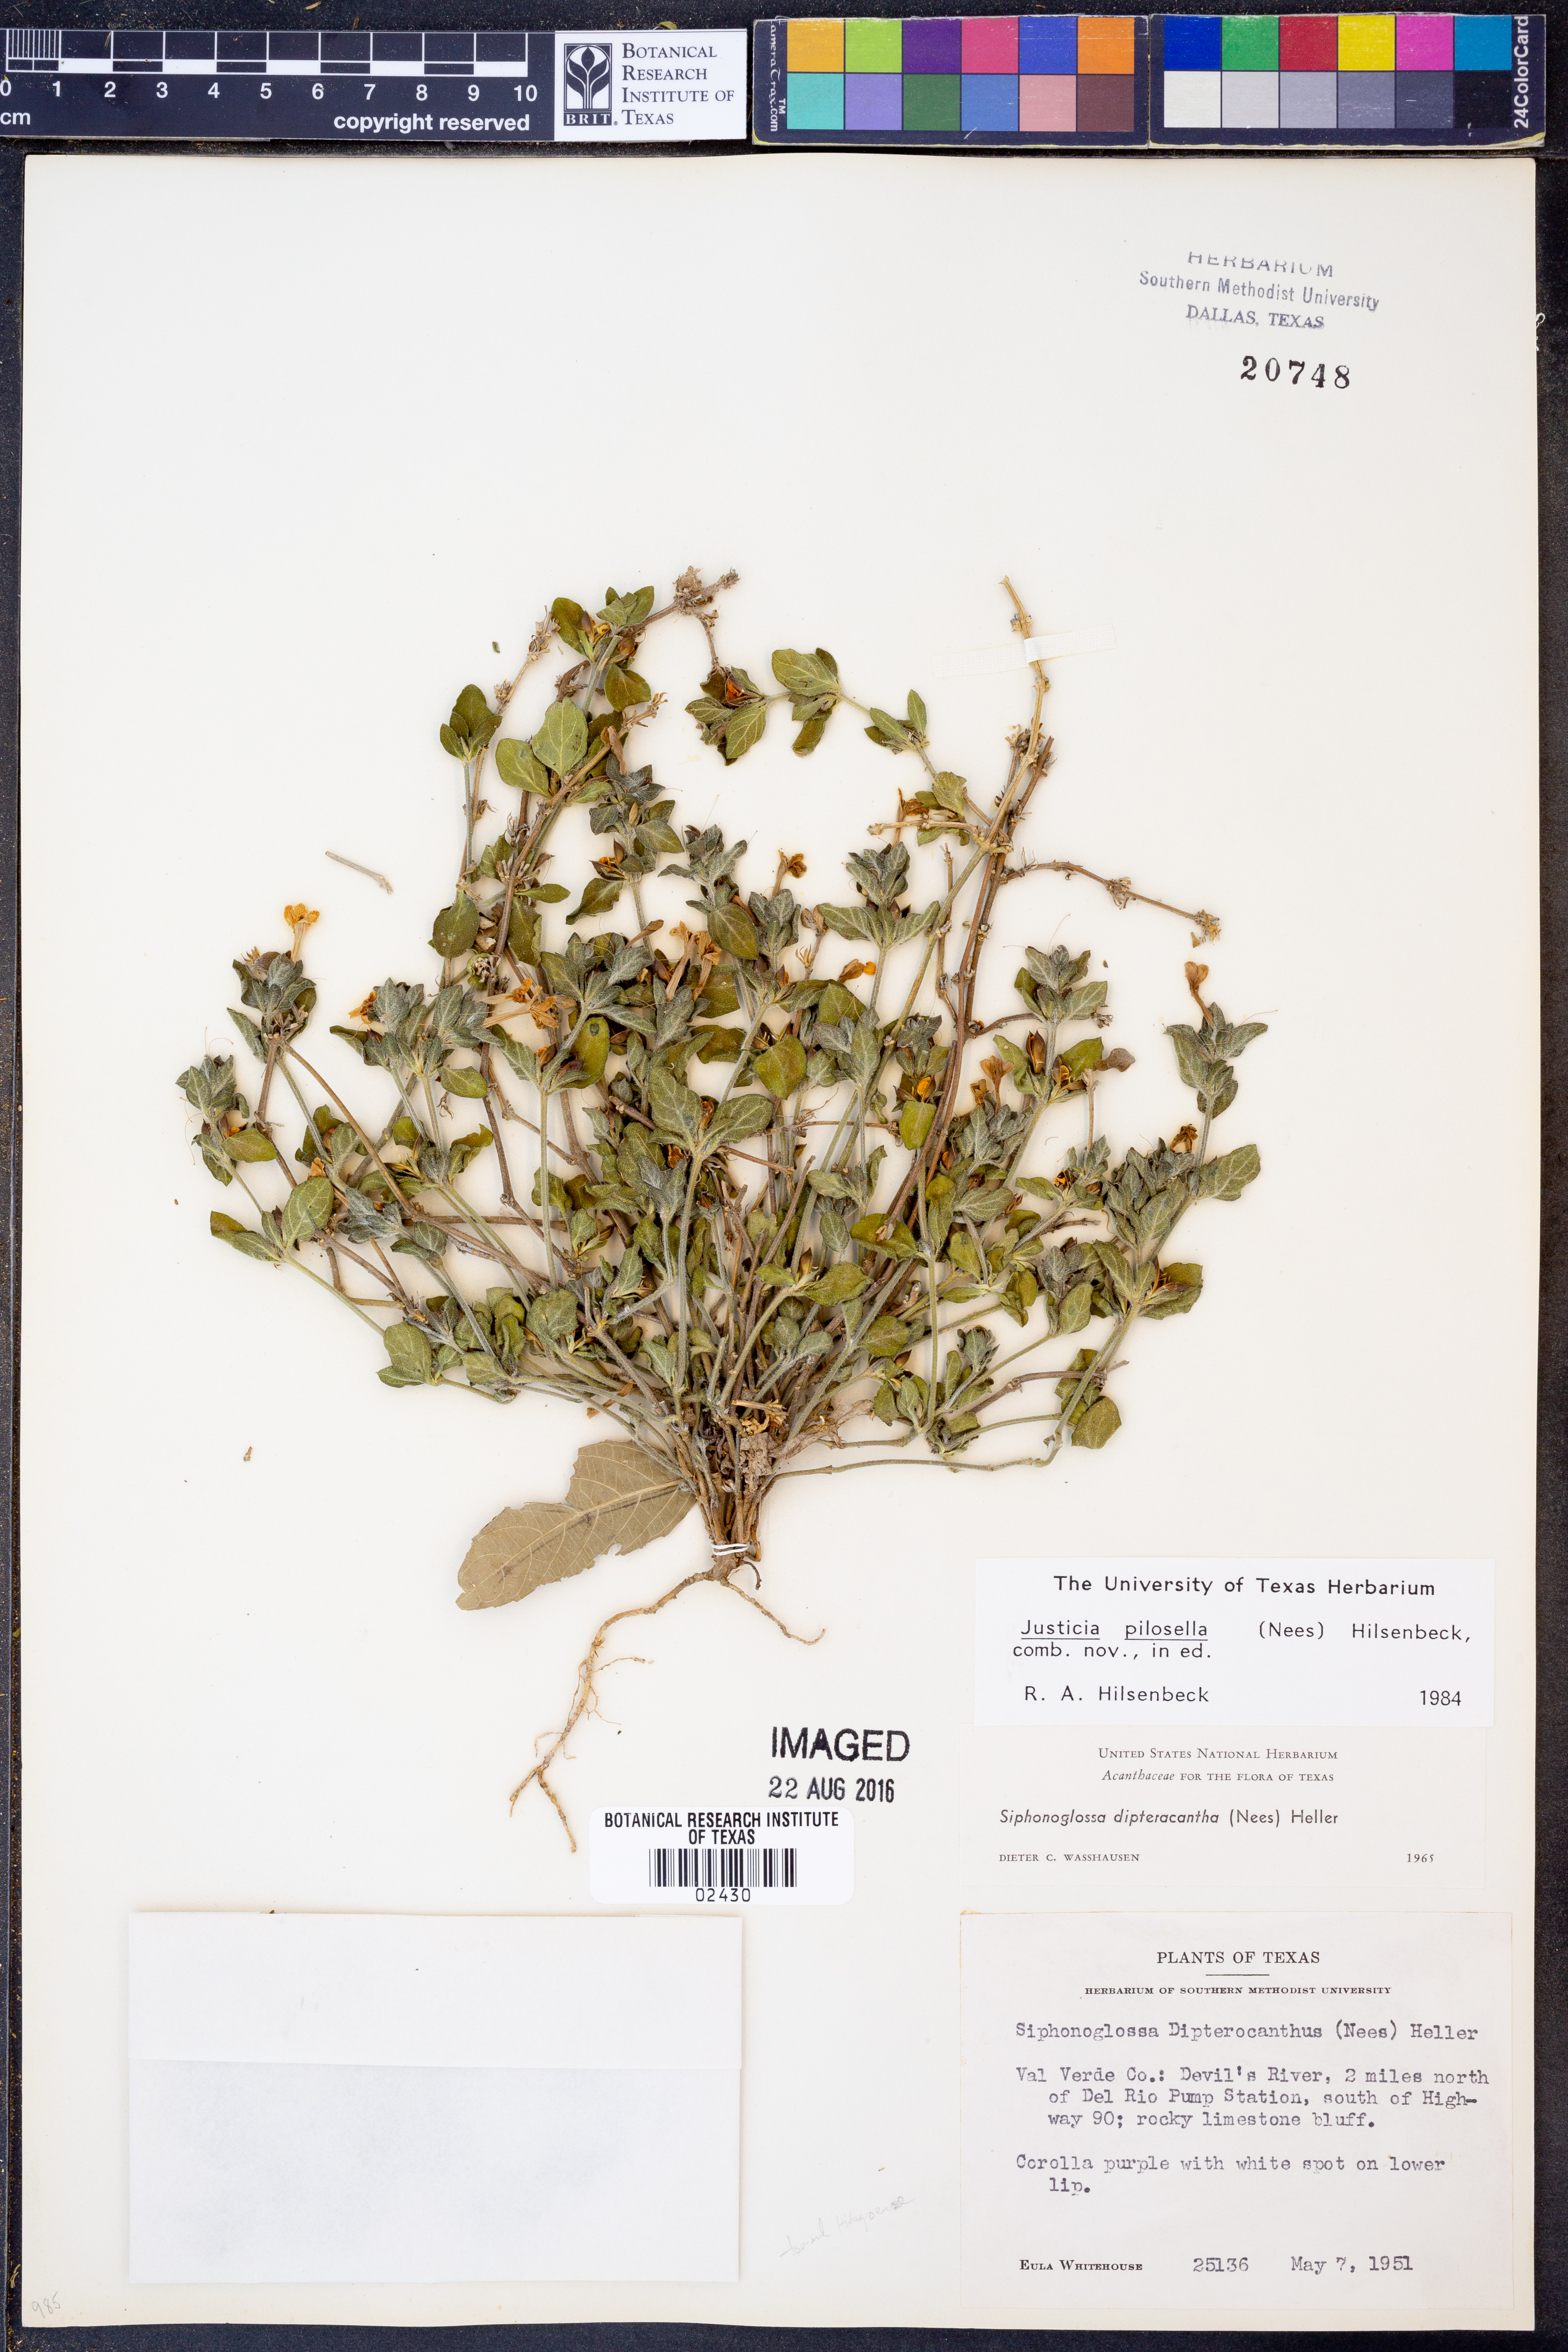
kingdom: Plantae
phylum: Tracheophyta
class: Magnoliopsida
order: Lamiales
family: Acanthaceae
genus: Justicia
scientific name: Justicia pilosella
